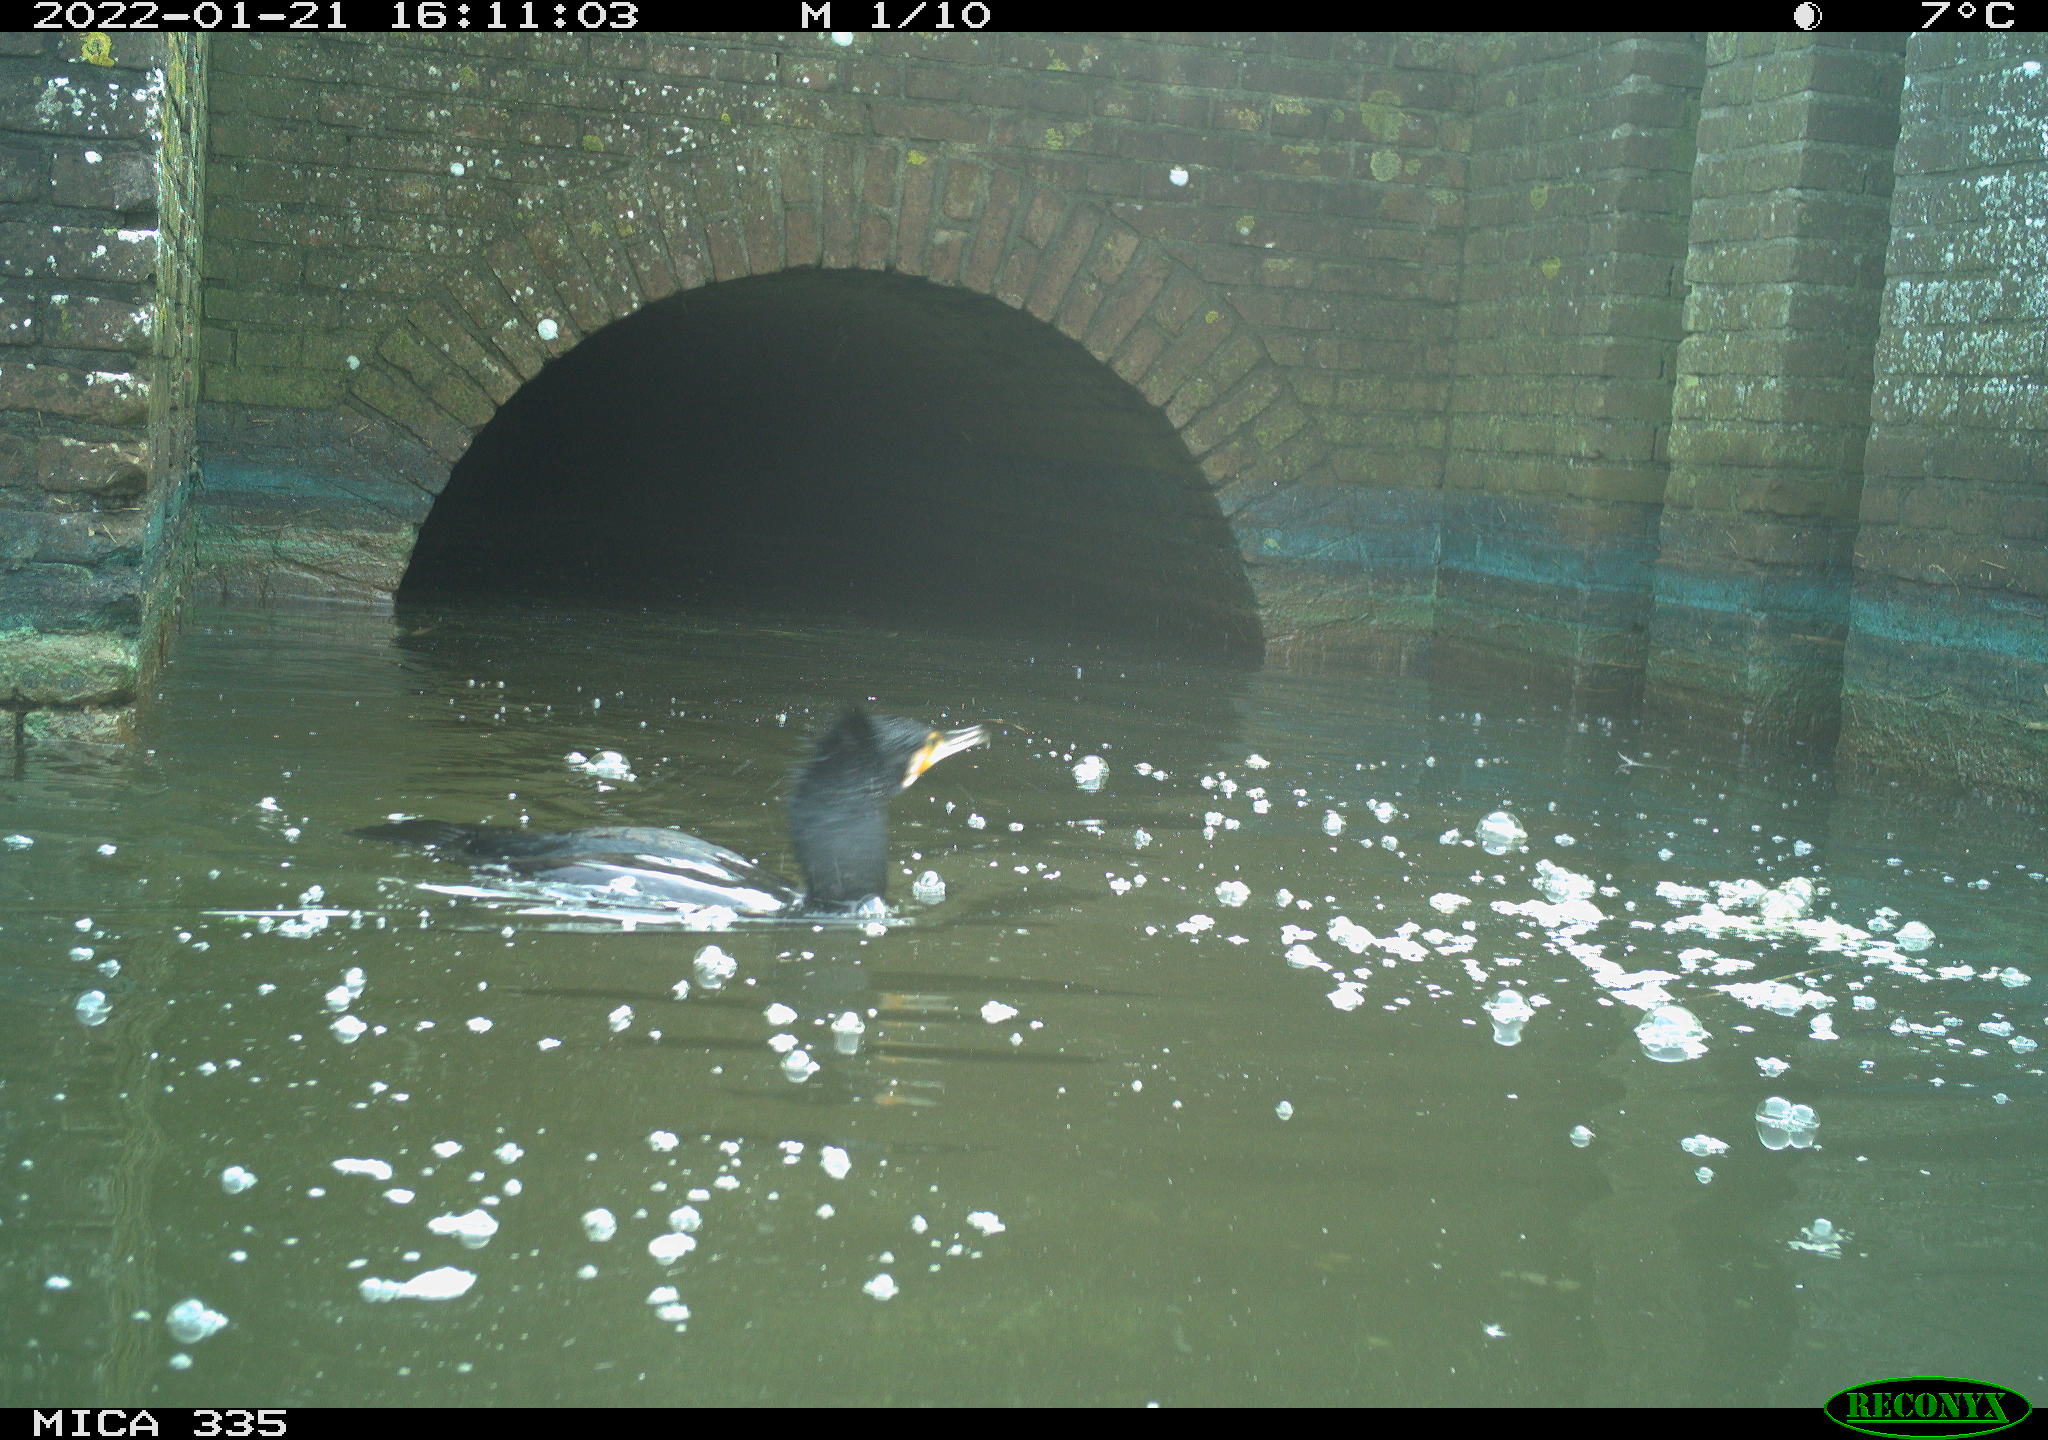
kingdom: Animalia
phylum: Chordata
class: Aves
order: Suliformes
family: Phalacrocoracidae
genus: Phalacrocorax
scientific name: Phalacrocorax carbo
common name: Great cormorant
